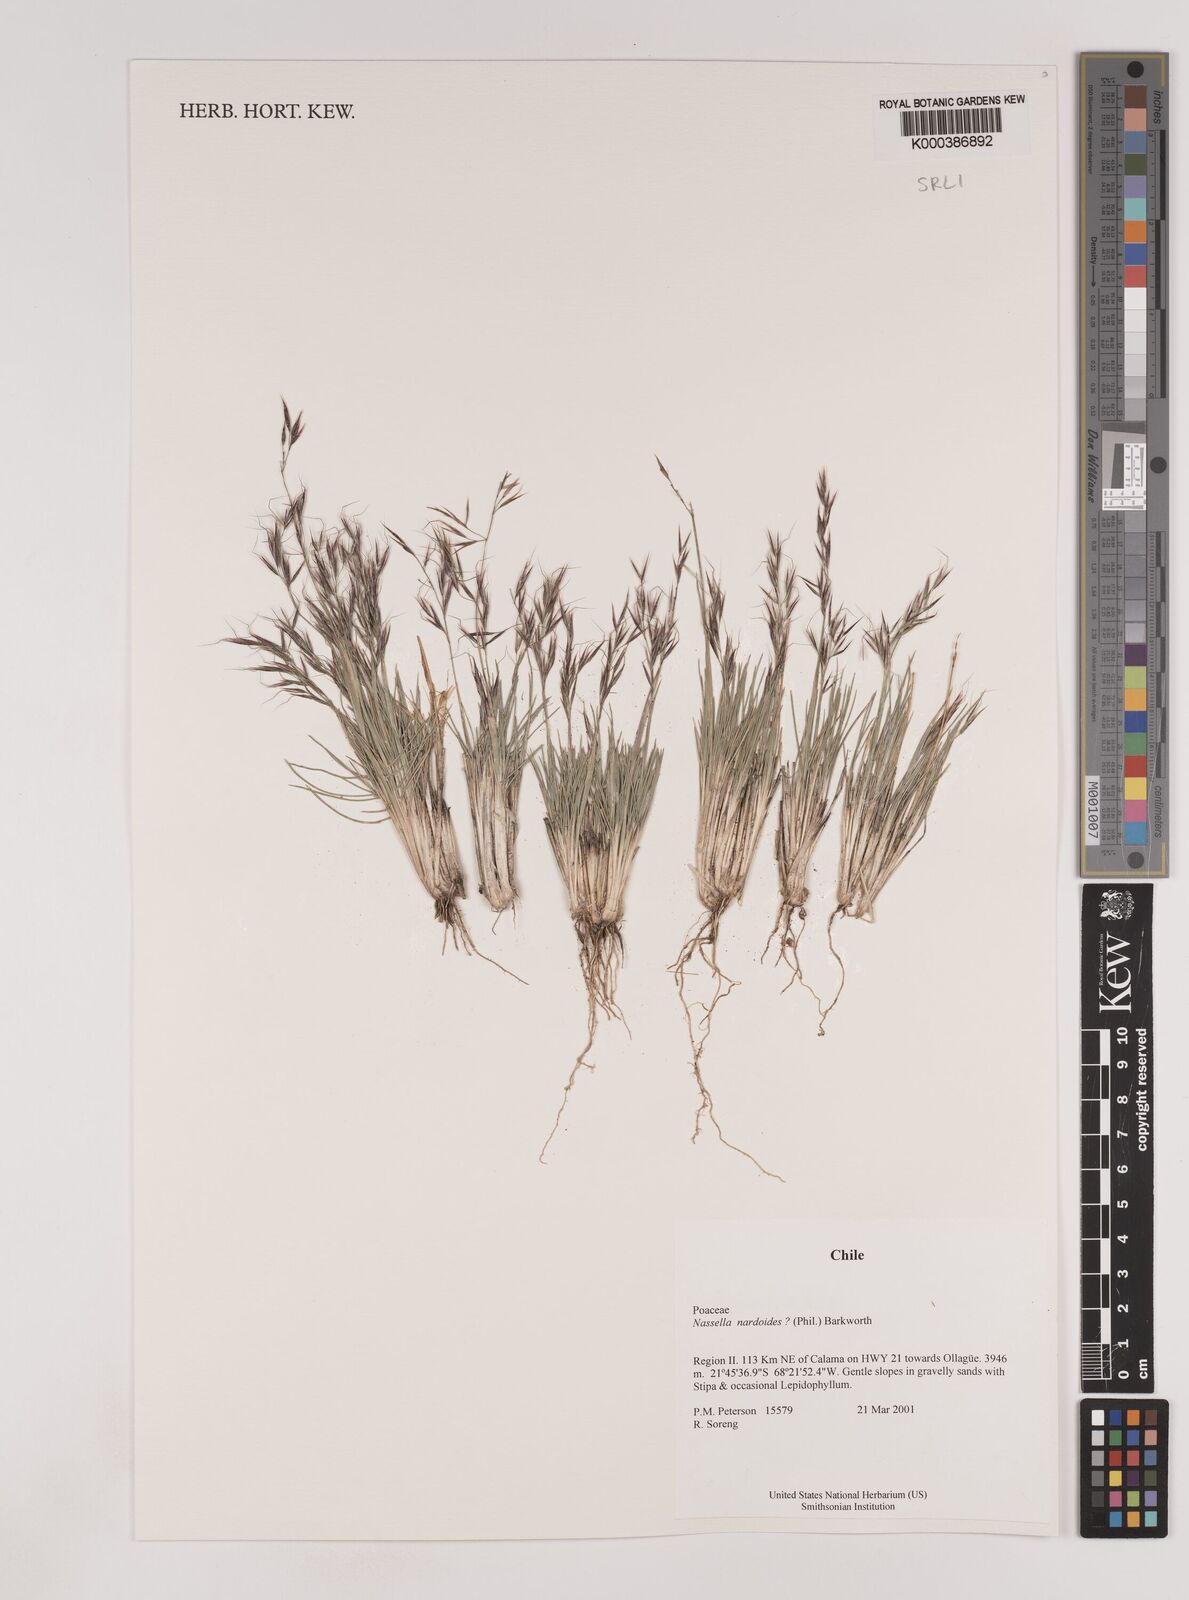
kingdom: Plantae
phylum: Tracheophyta
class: Liliopsida
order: Poales
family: Poaceae
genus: Nassella
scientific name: Nassella nardoides
